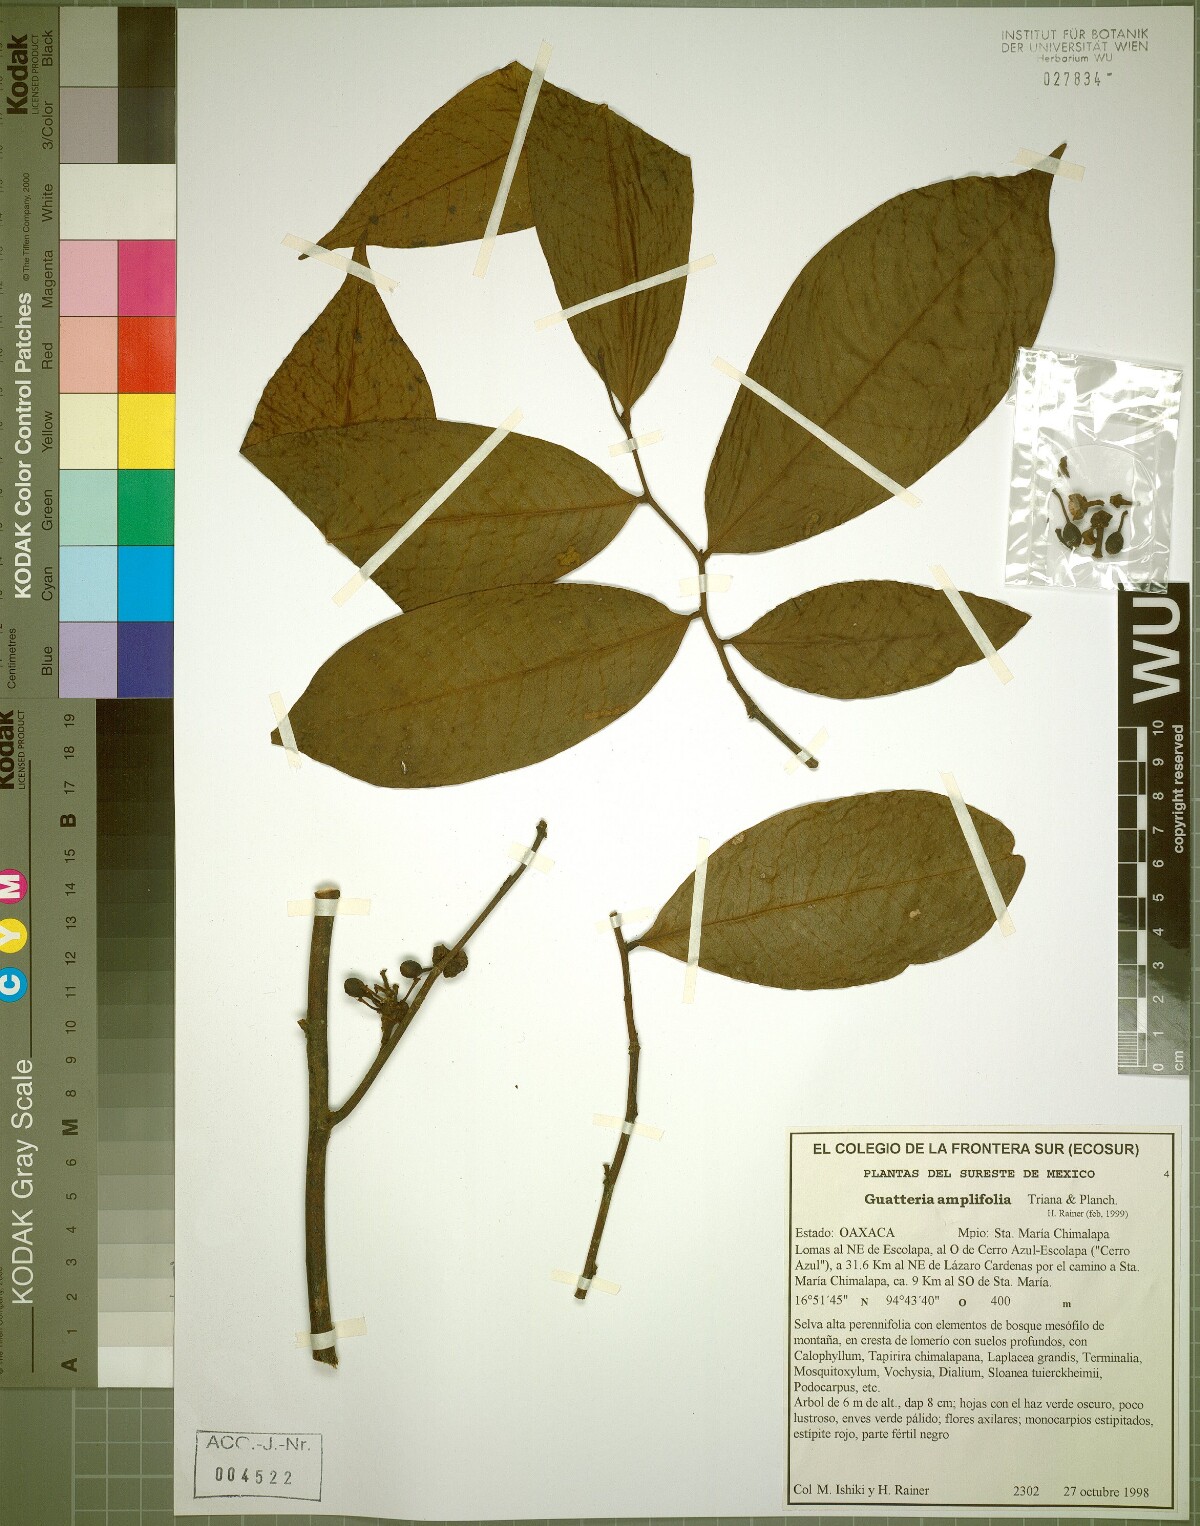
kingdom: Plantae
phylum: Tracheophyta
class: Magnoliopsida
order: Magnoliales
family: Annonaceae
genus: Guatteria
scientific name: Guatteria amplifolia
